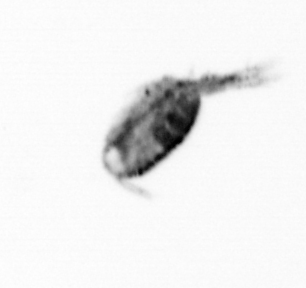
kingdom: Animalia
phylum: Arthropoda
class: Copepoda
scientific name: Copepoda
